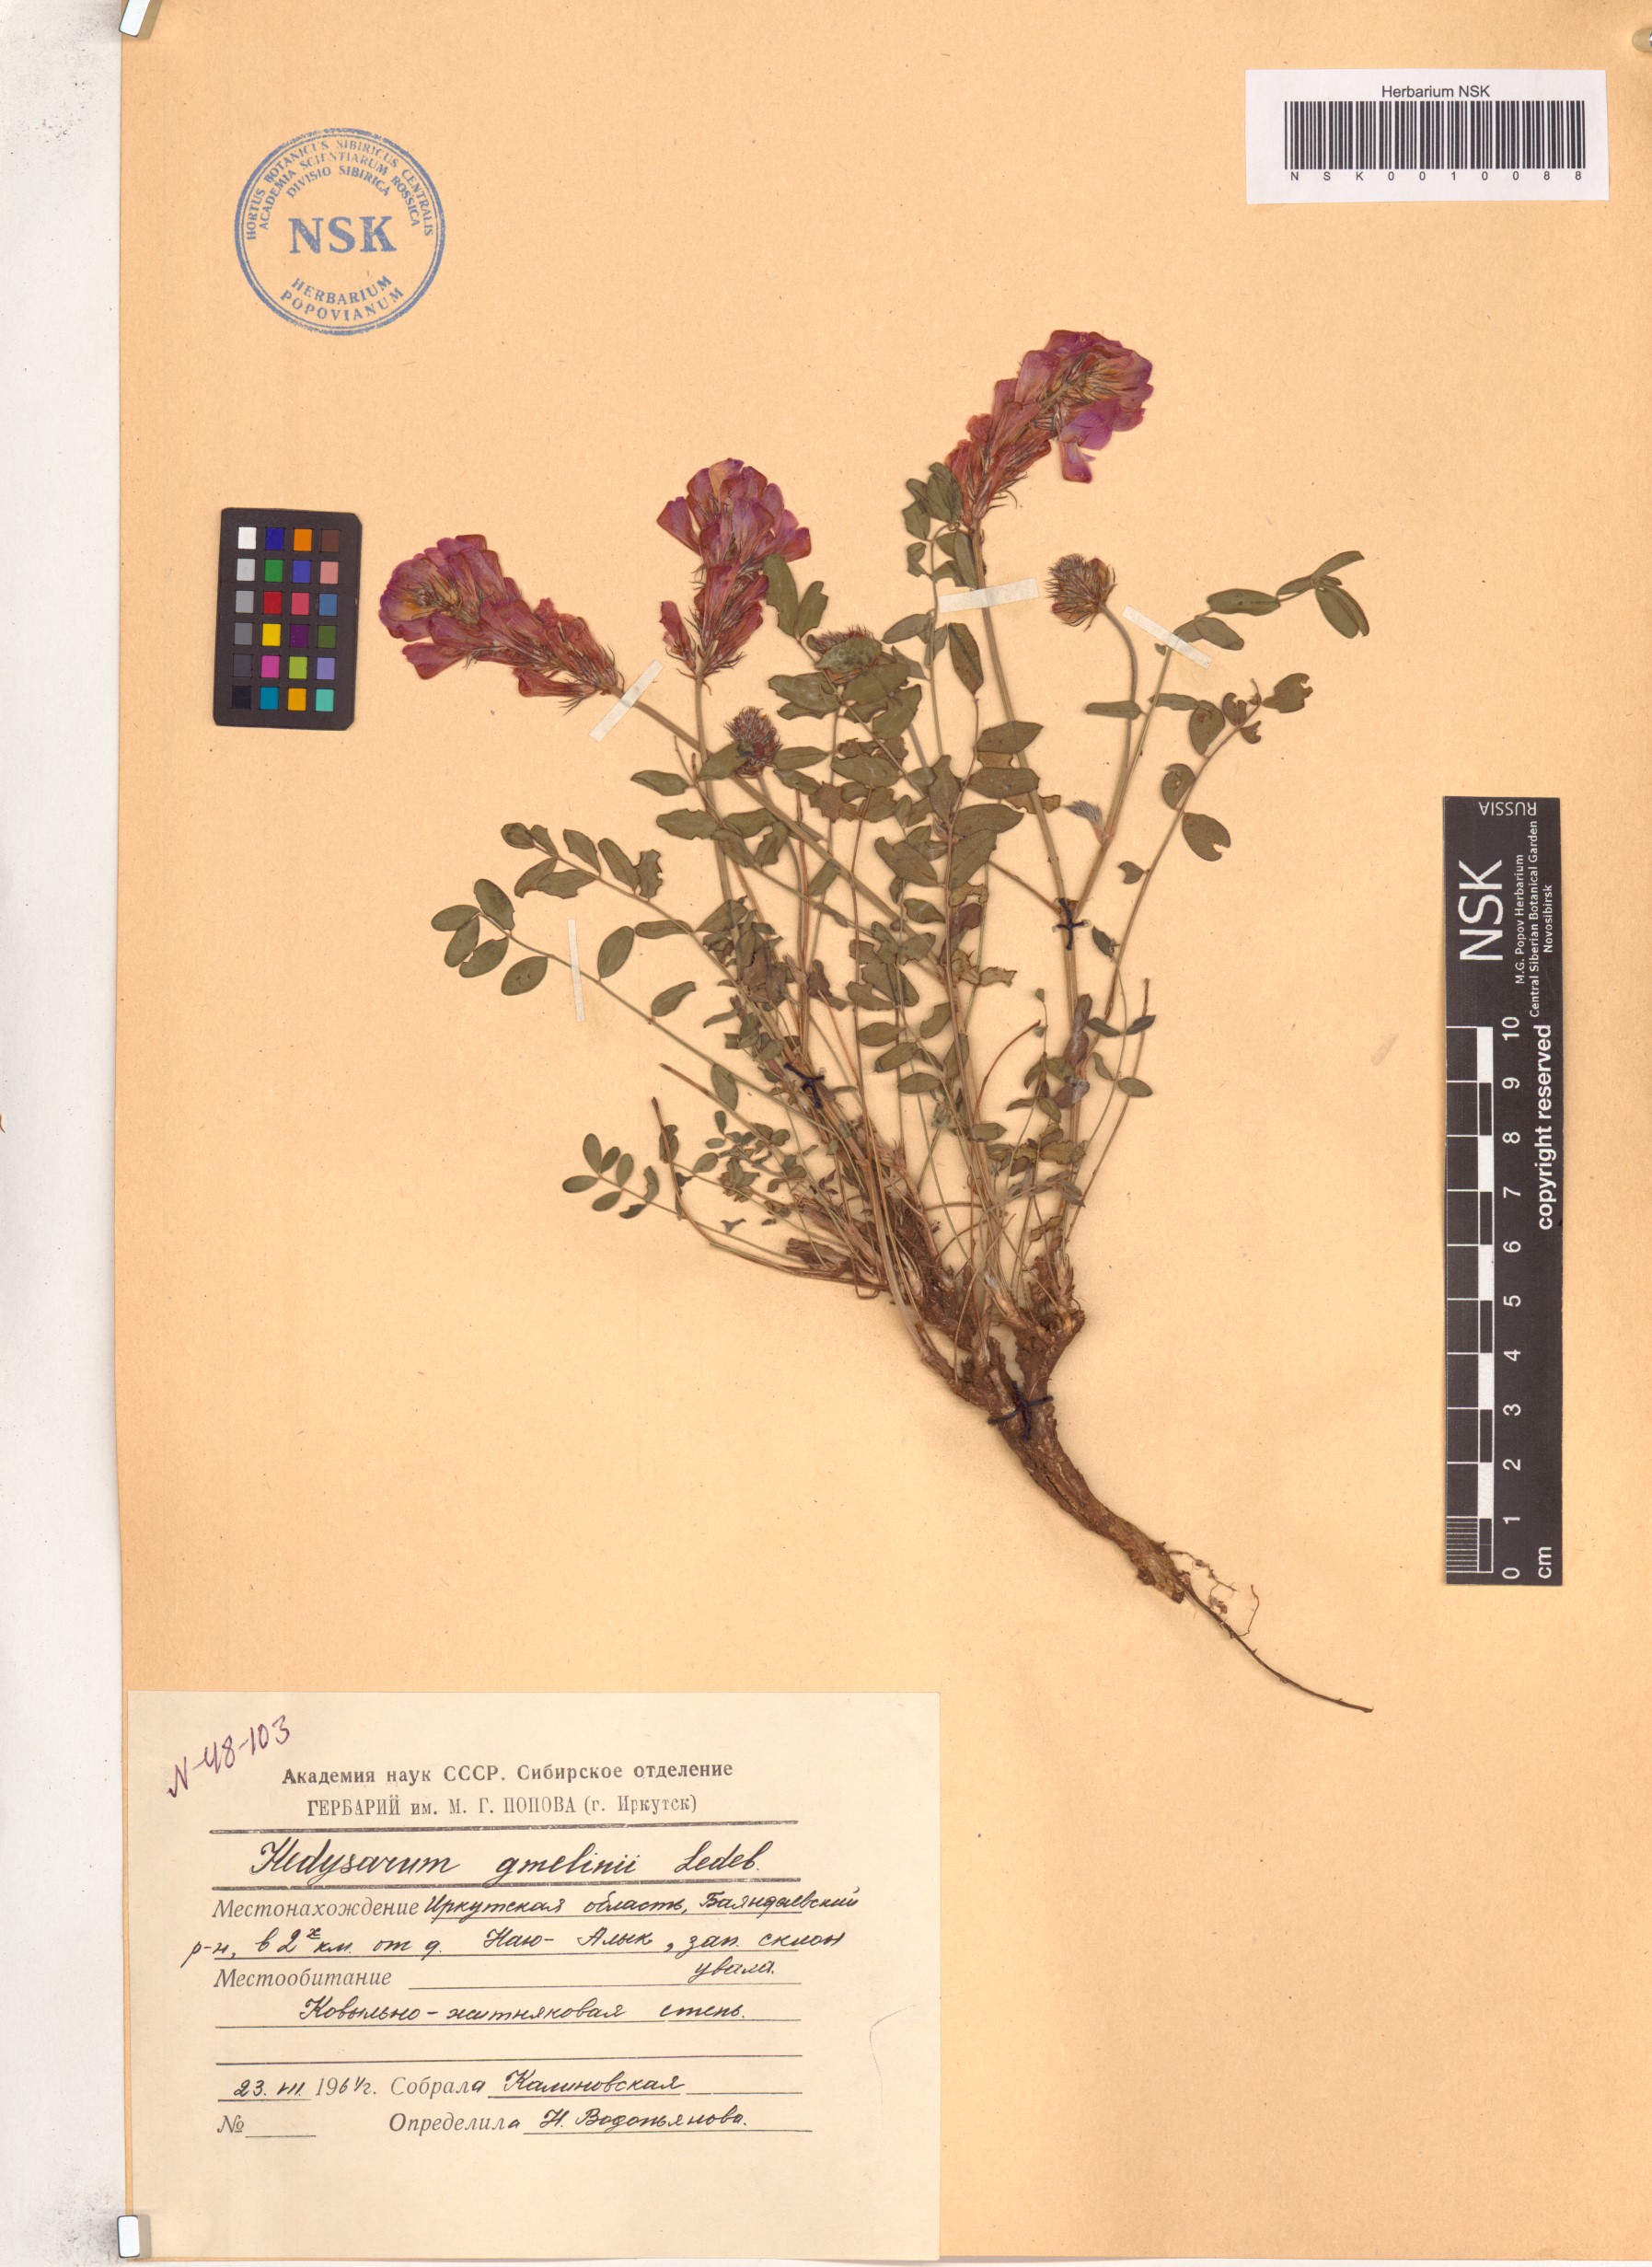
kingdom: Plantae
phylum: Tracheophyta
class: Magnoliopsida
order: Fabales
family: Fabaceae
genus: Hedysarum
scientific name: Hedysarum gmelinii
